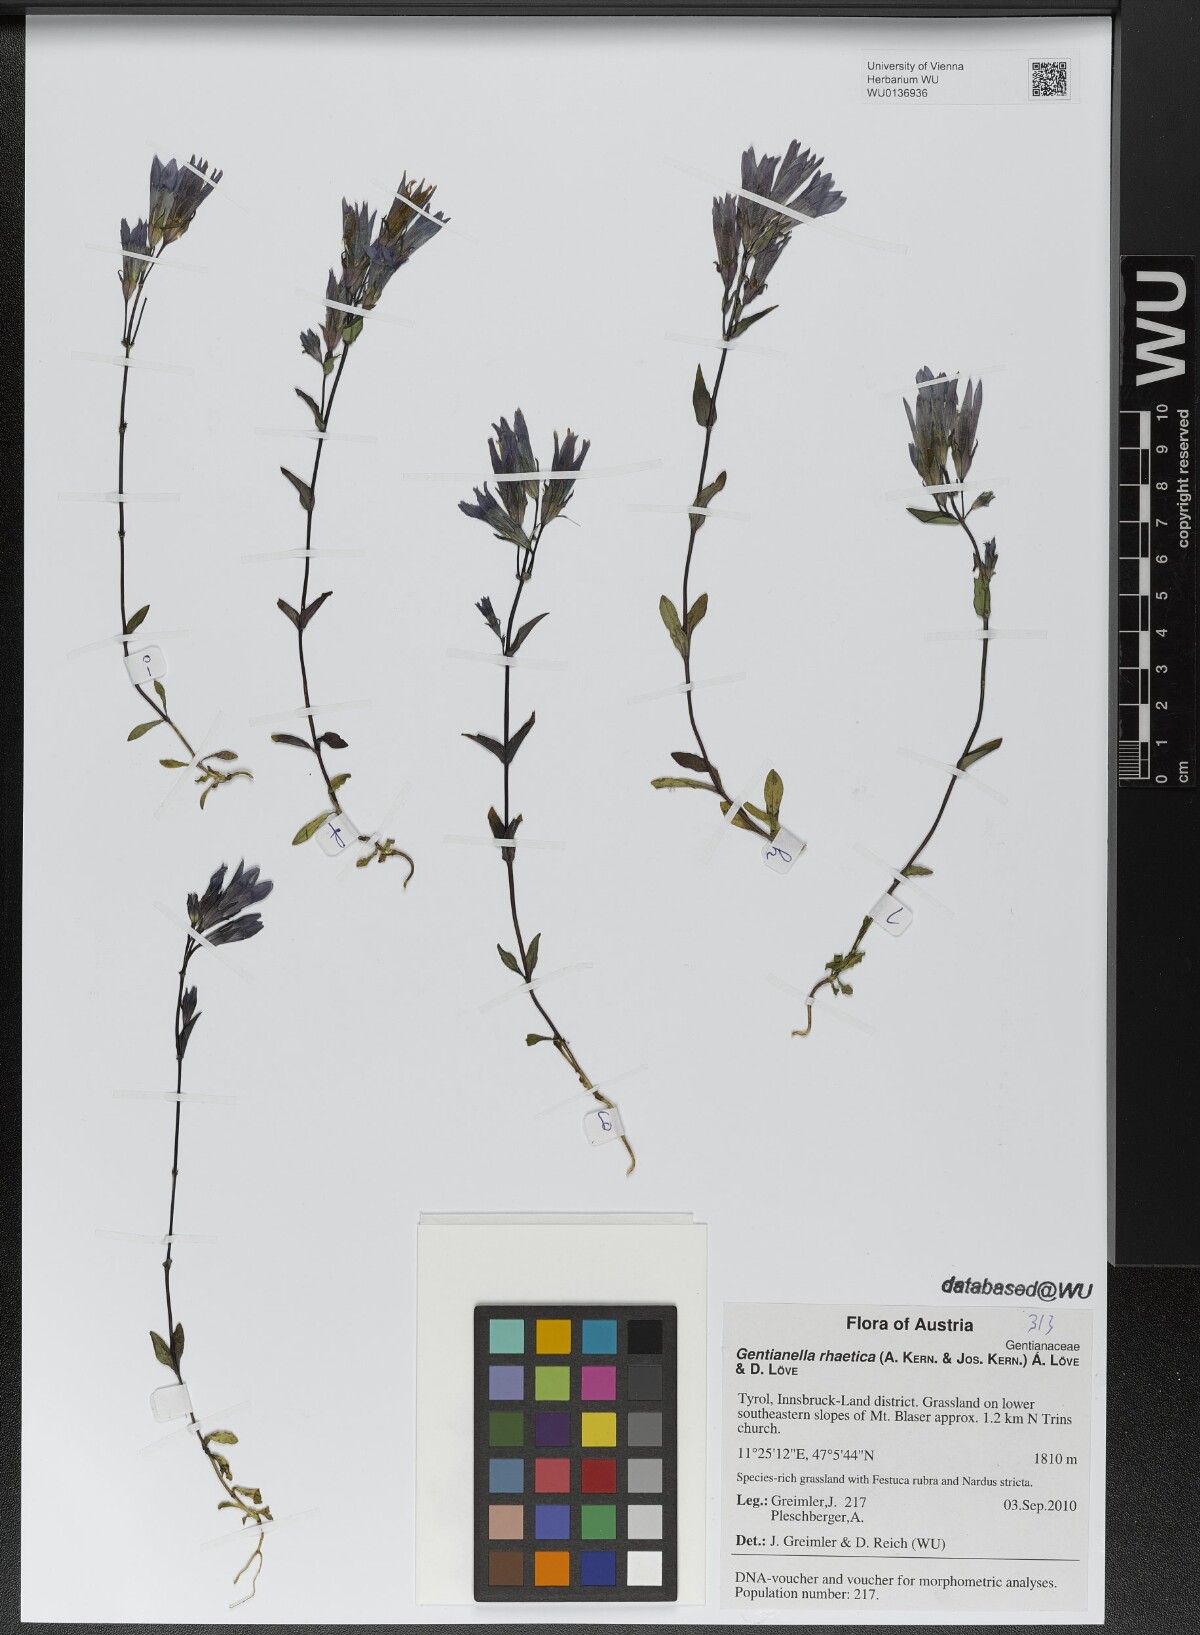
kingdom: Plantae
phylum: Tracheophyta
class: Magnoliopsida
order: Gentianales
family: Gentianaceae
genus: Gentianella
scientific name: Gentianella rhaetica
